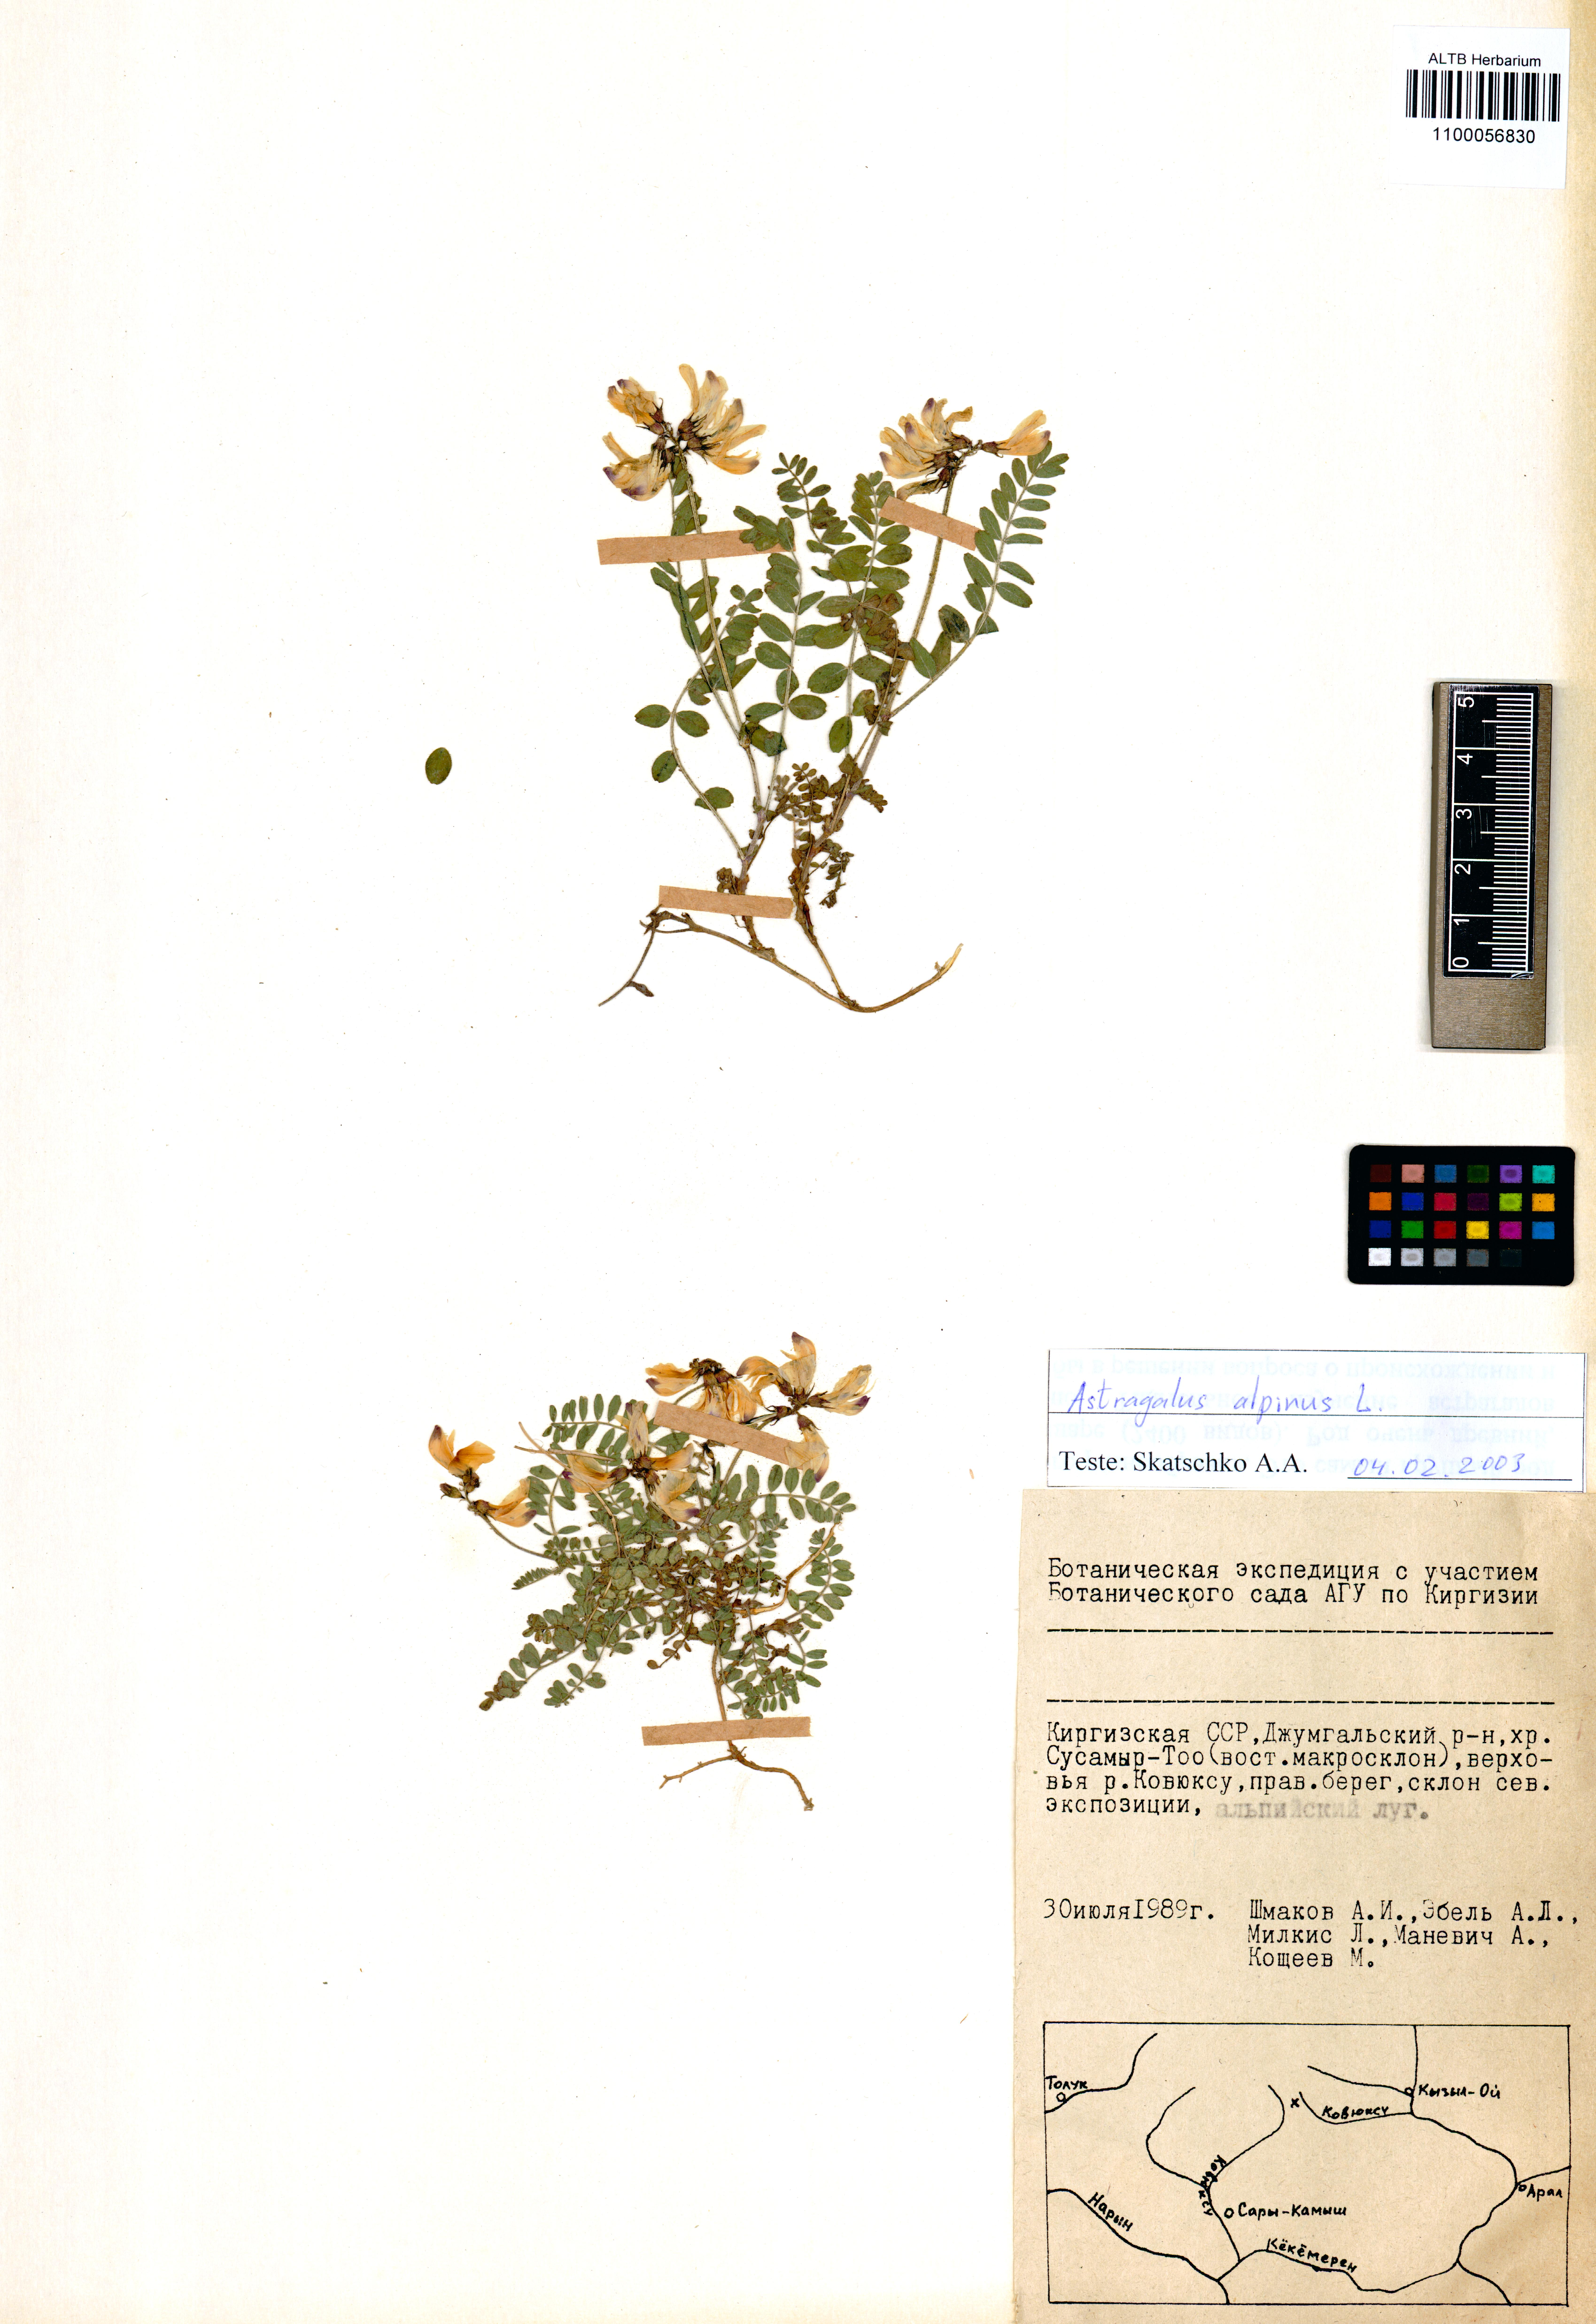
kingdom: Plantae
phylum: Tracheophyta
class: Magnoliopsida
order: Fabales
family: Fabaceae
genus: Astragalus
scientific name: Astragalus alpinus
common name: Alpine milk-vetch
